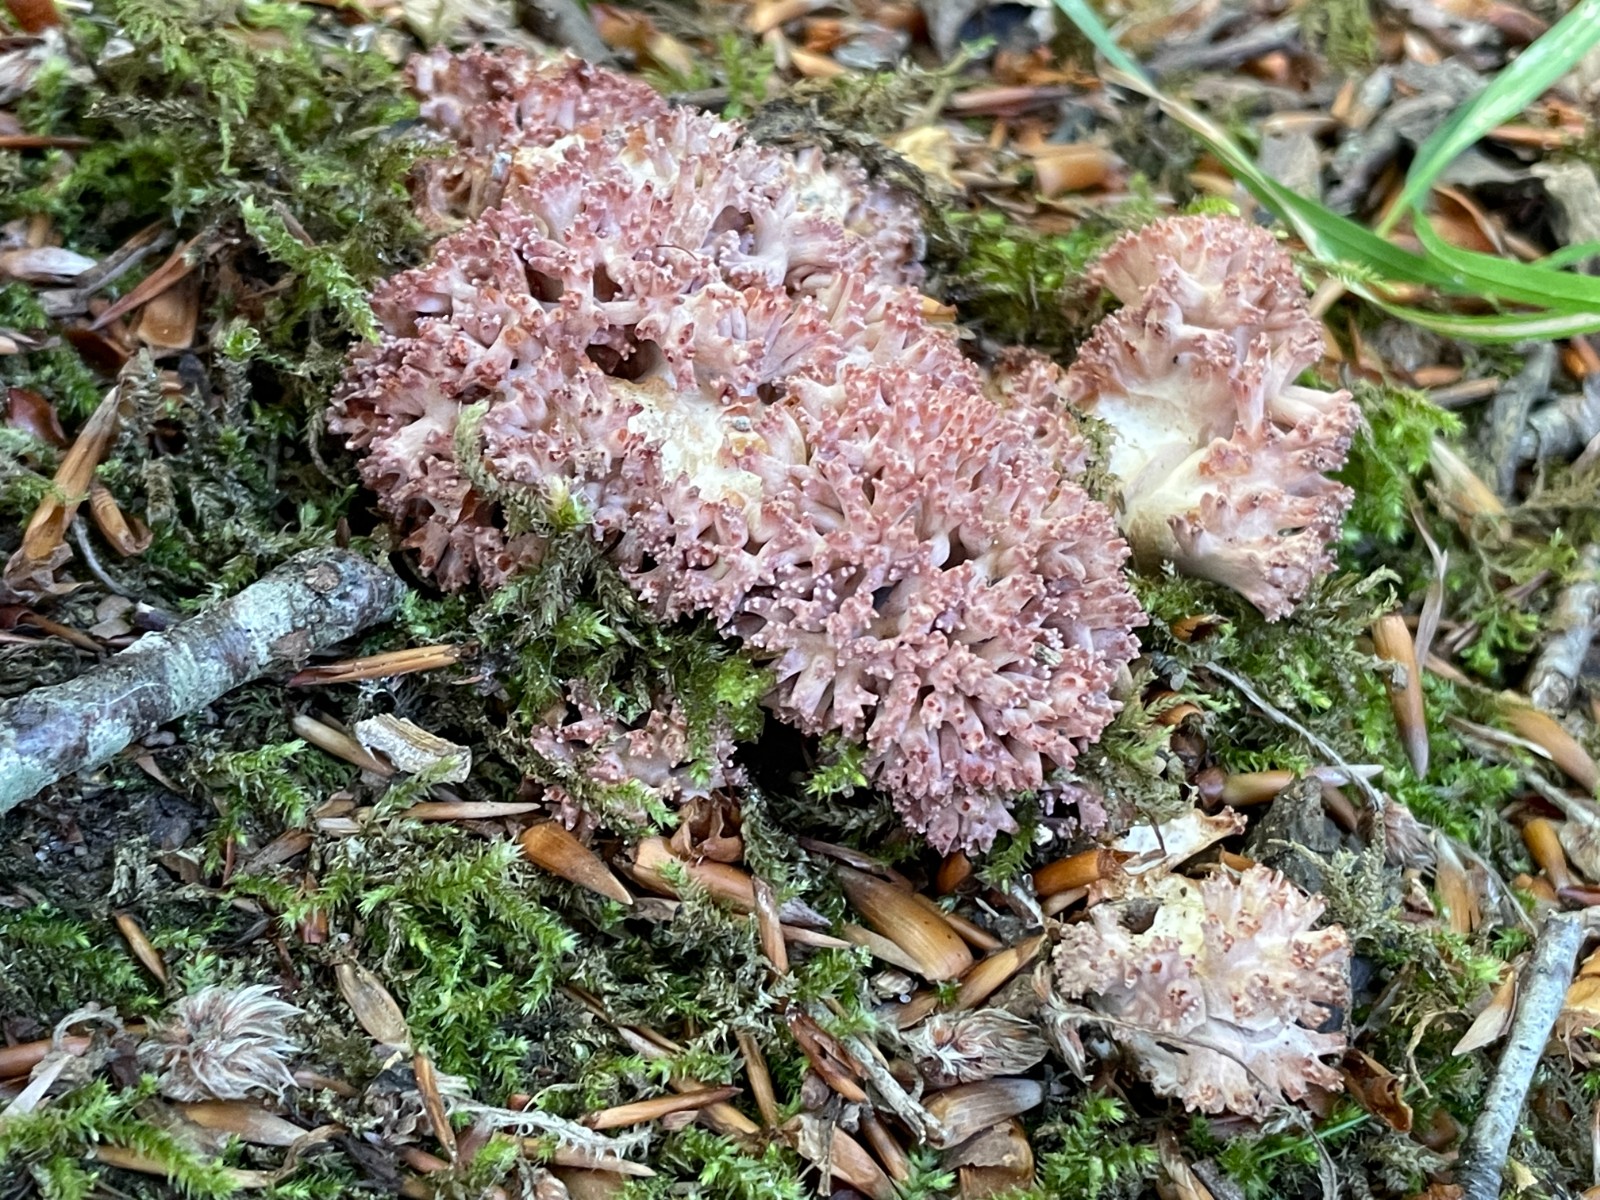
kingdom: Fungi
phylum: Basidiomycota
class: Agaricomycetes
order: Gomphales
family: Gomphaceae
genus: Ramaria
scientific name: Ramaria botrytis
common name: drue-koralsvamp
